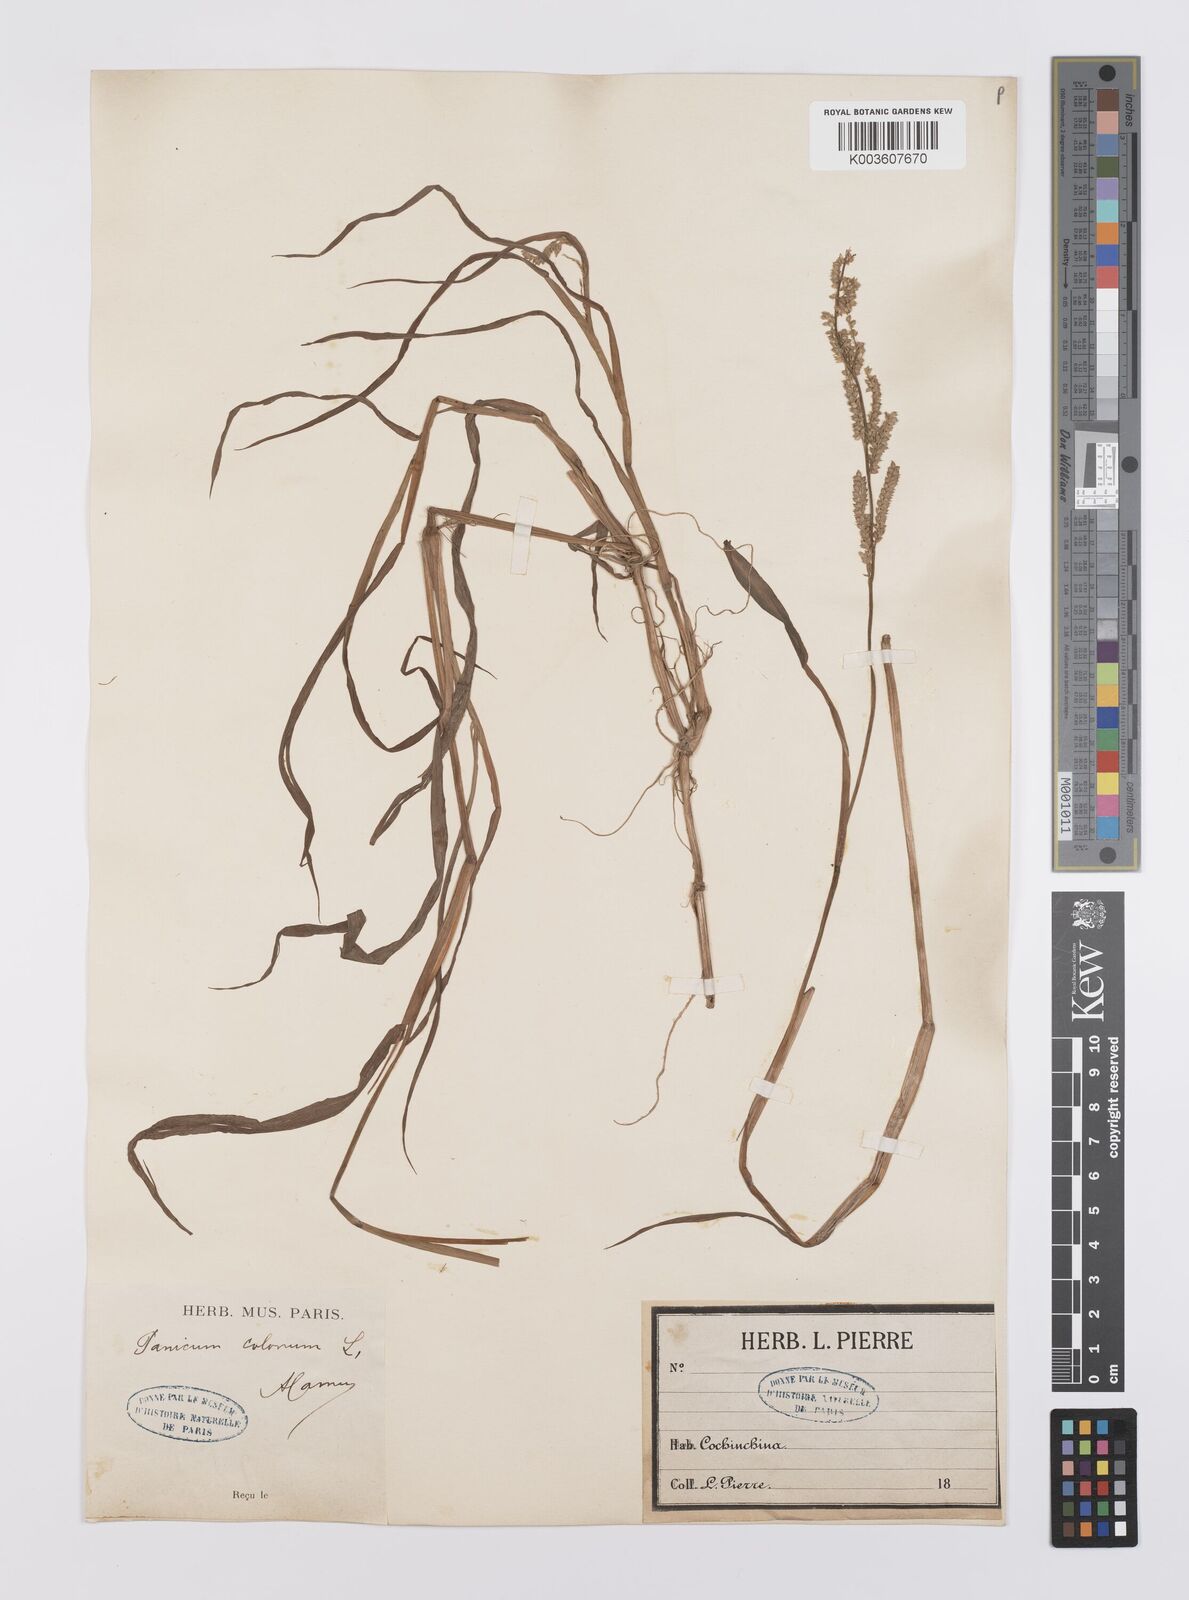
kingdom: Plantae
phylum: Tracheophyta
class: Liliopsida
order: Poales
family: Poaceae
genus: Echinochloa
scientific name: Echinochloa colonum
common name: Jungle rice
